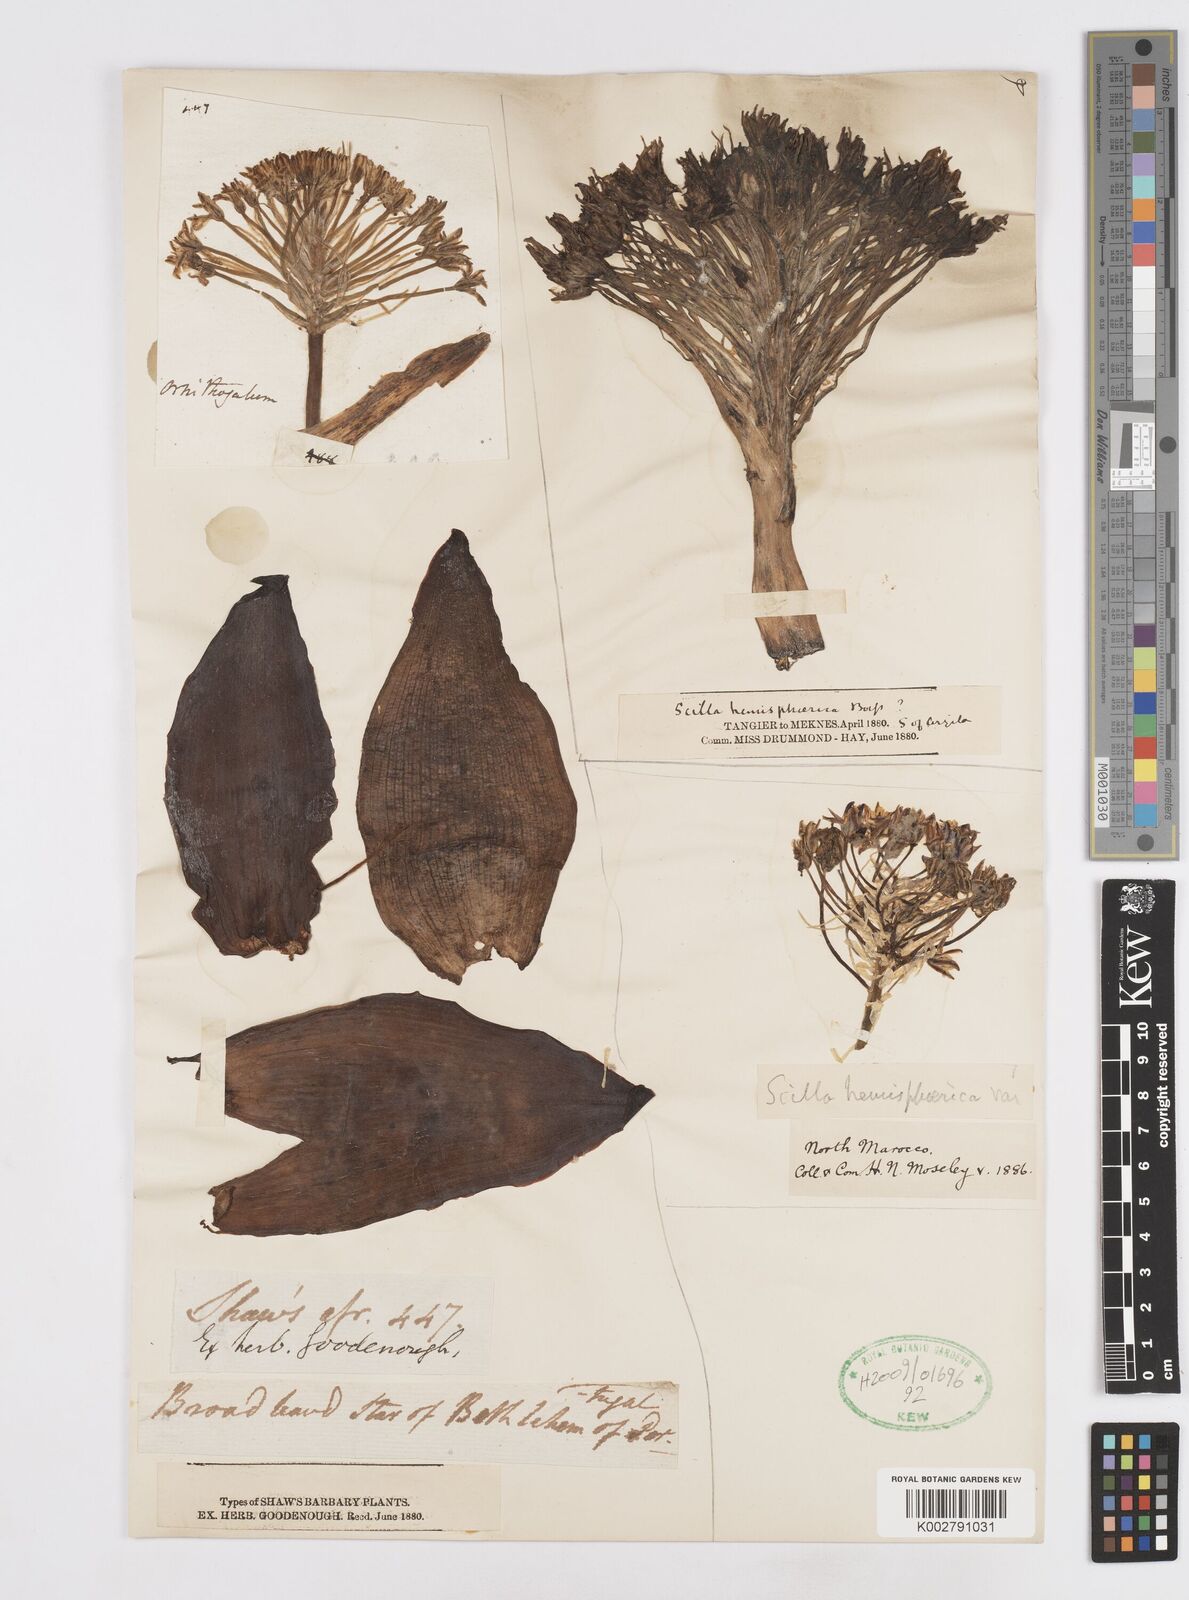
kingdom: Plantae
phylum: Tracheophyta
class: Liliopsida
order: Asparagales
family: Asparagaceae
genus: Scilla
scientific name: Scilla peruviana
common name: Portuguese squill
